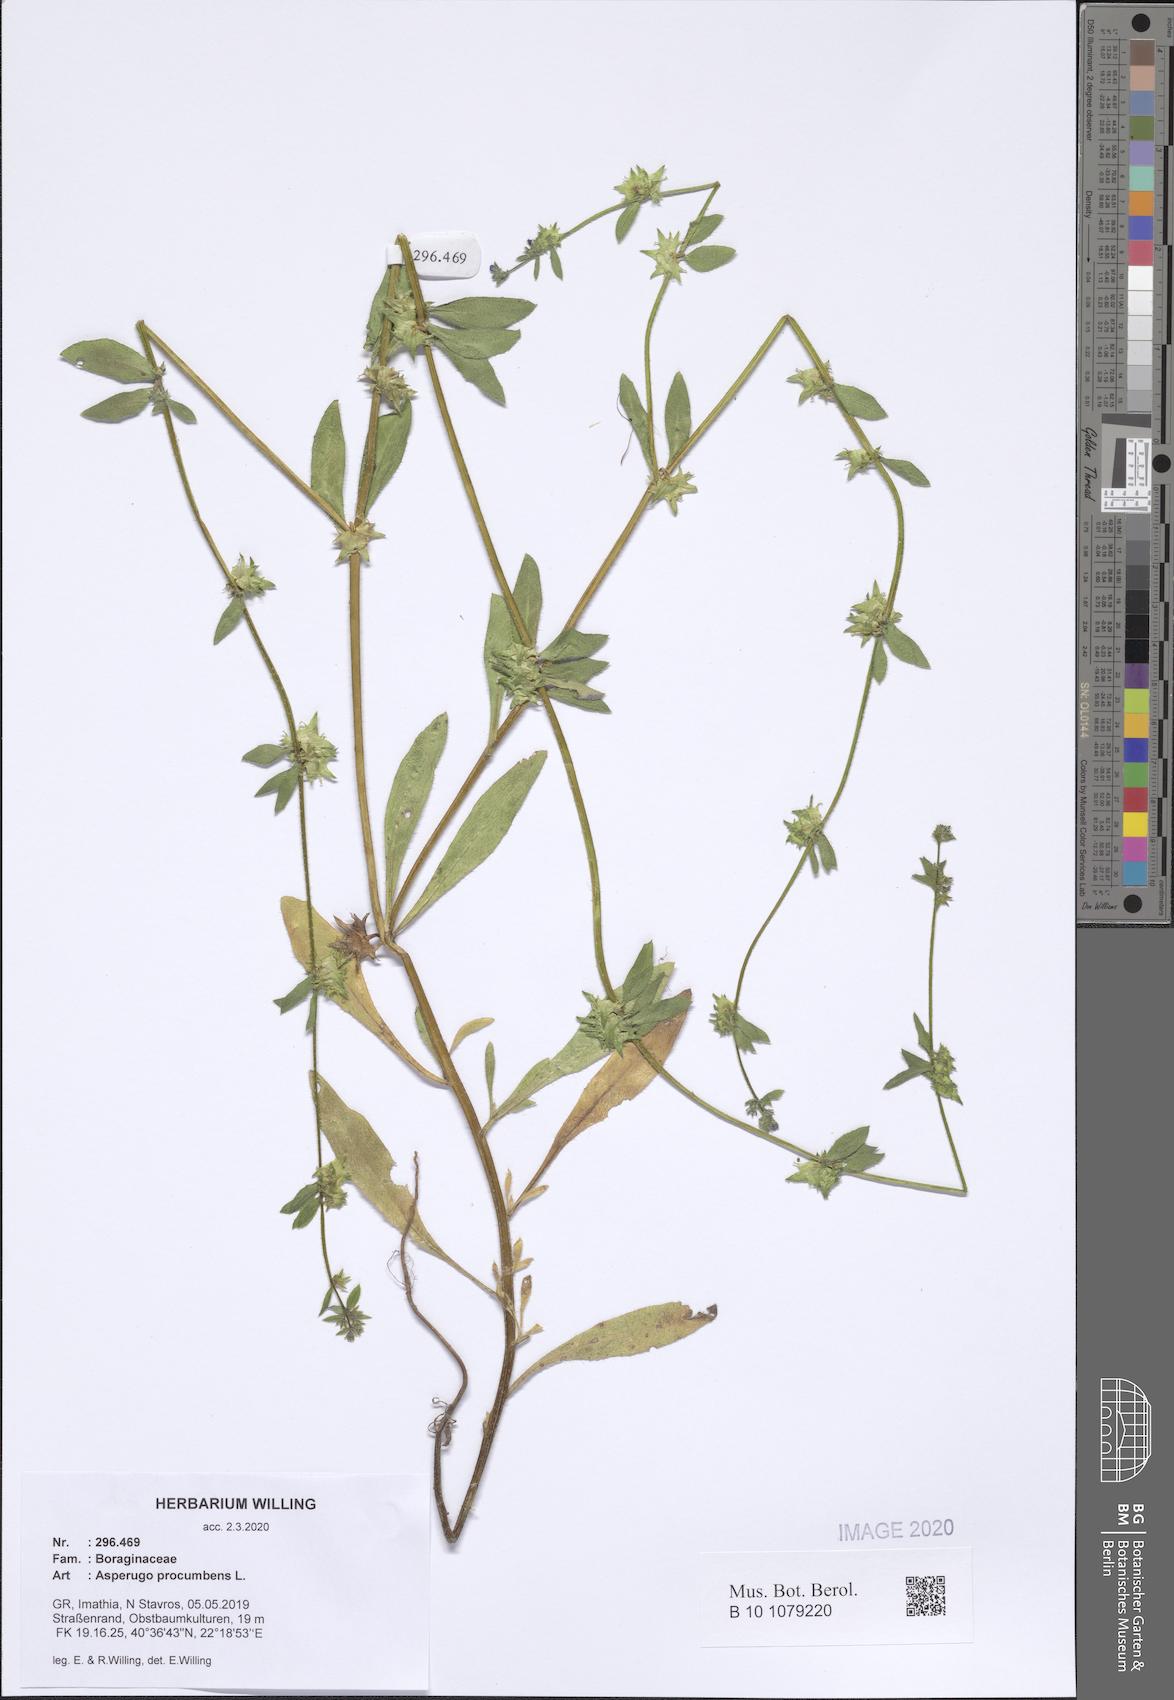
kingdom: Plantae
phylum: Tracheophyta
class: Magnoliopsida
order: Boraginales
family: Boraginaceae
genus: Asperugo
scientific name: Asperugo procumbens
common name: Madwort
